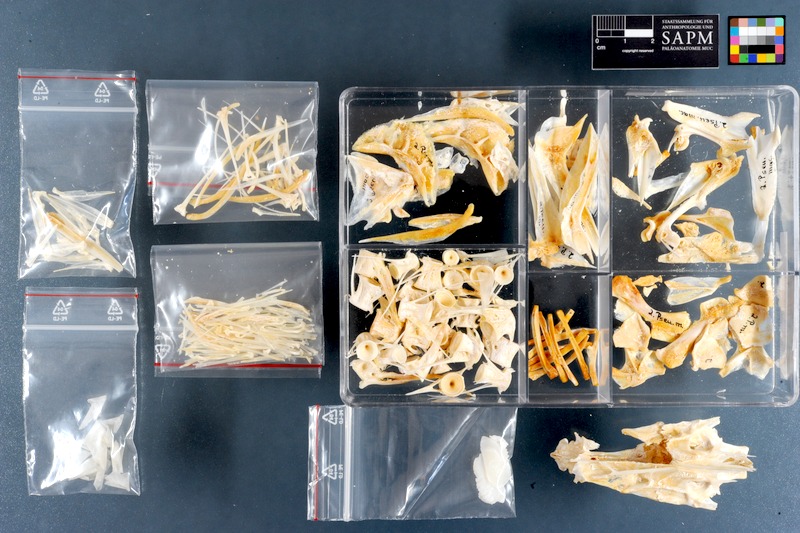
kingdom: Animalia
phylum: Chordata
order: Perciformes
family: Sciaenidae
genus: Pseudotolithus
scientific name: Pseudotolithus senegalensis
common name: Cassava croaker
